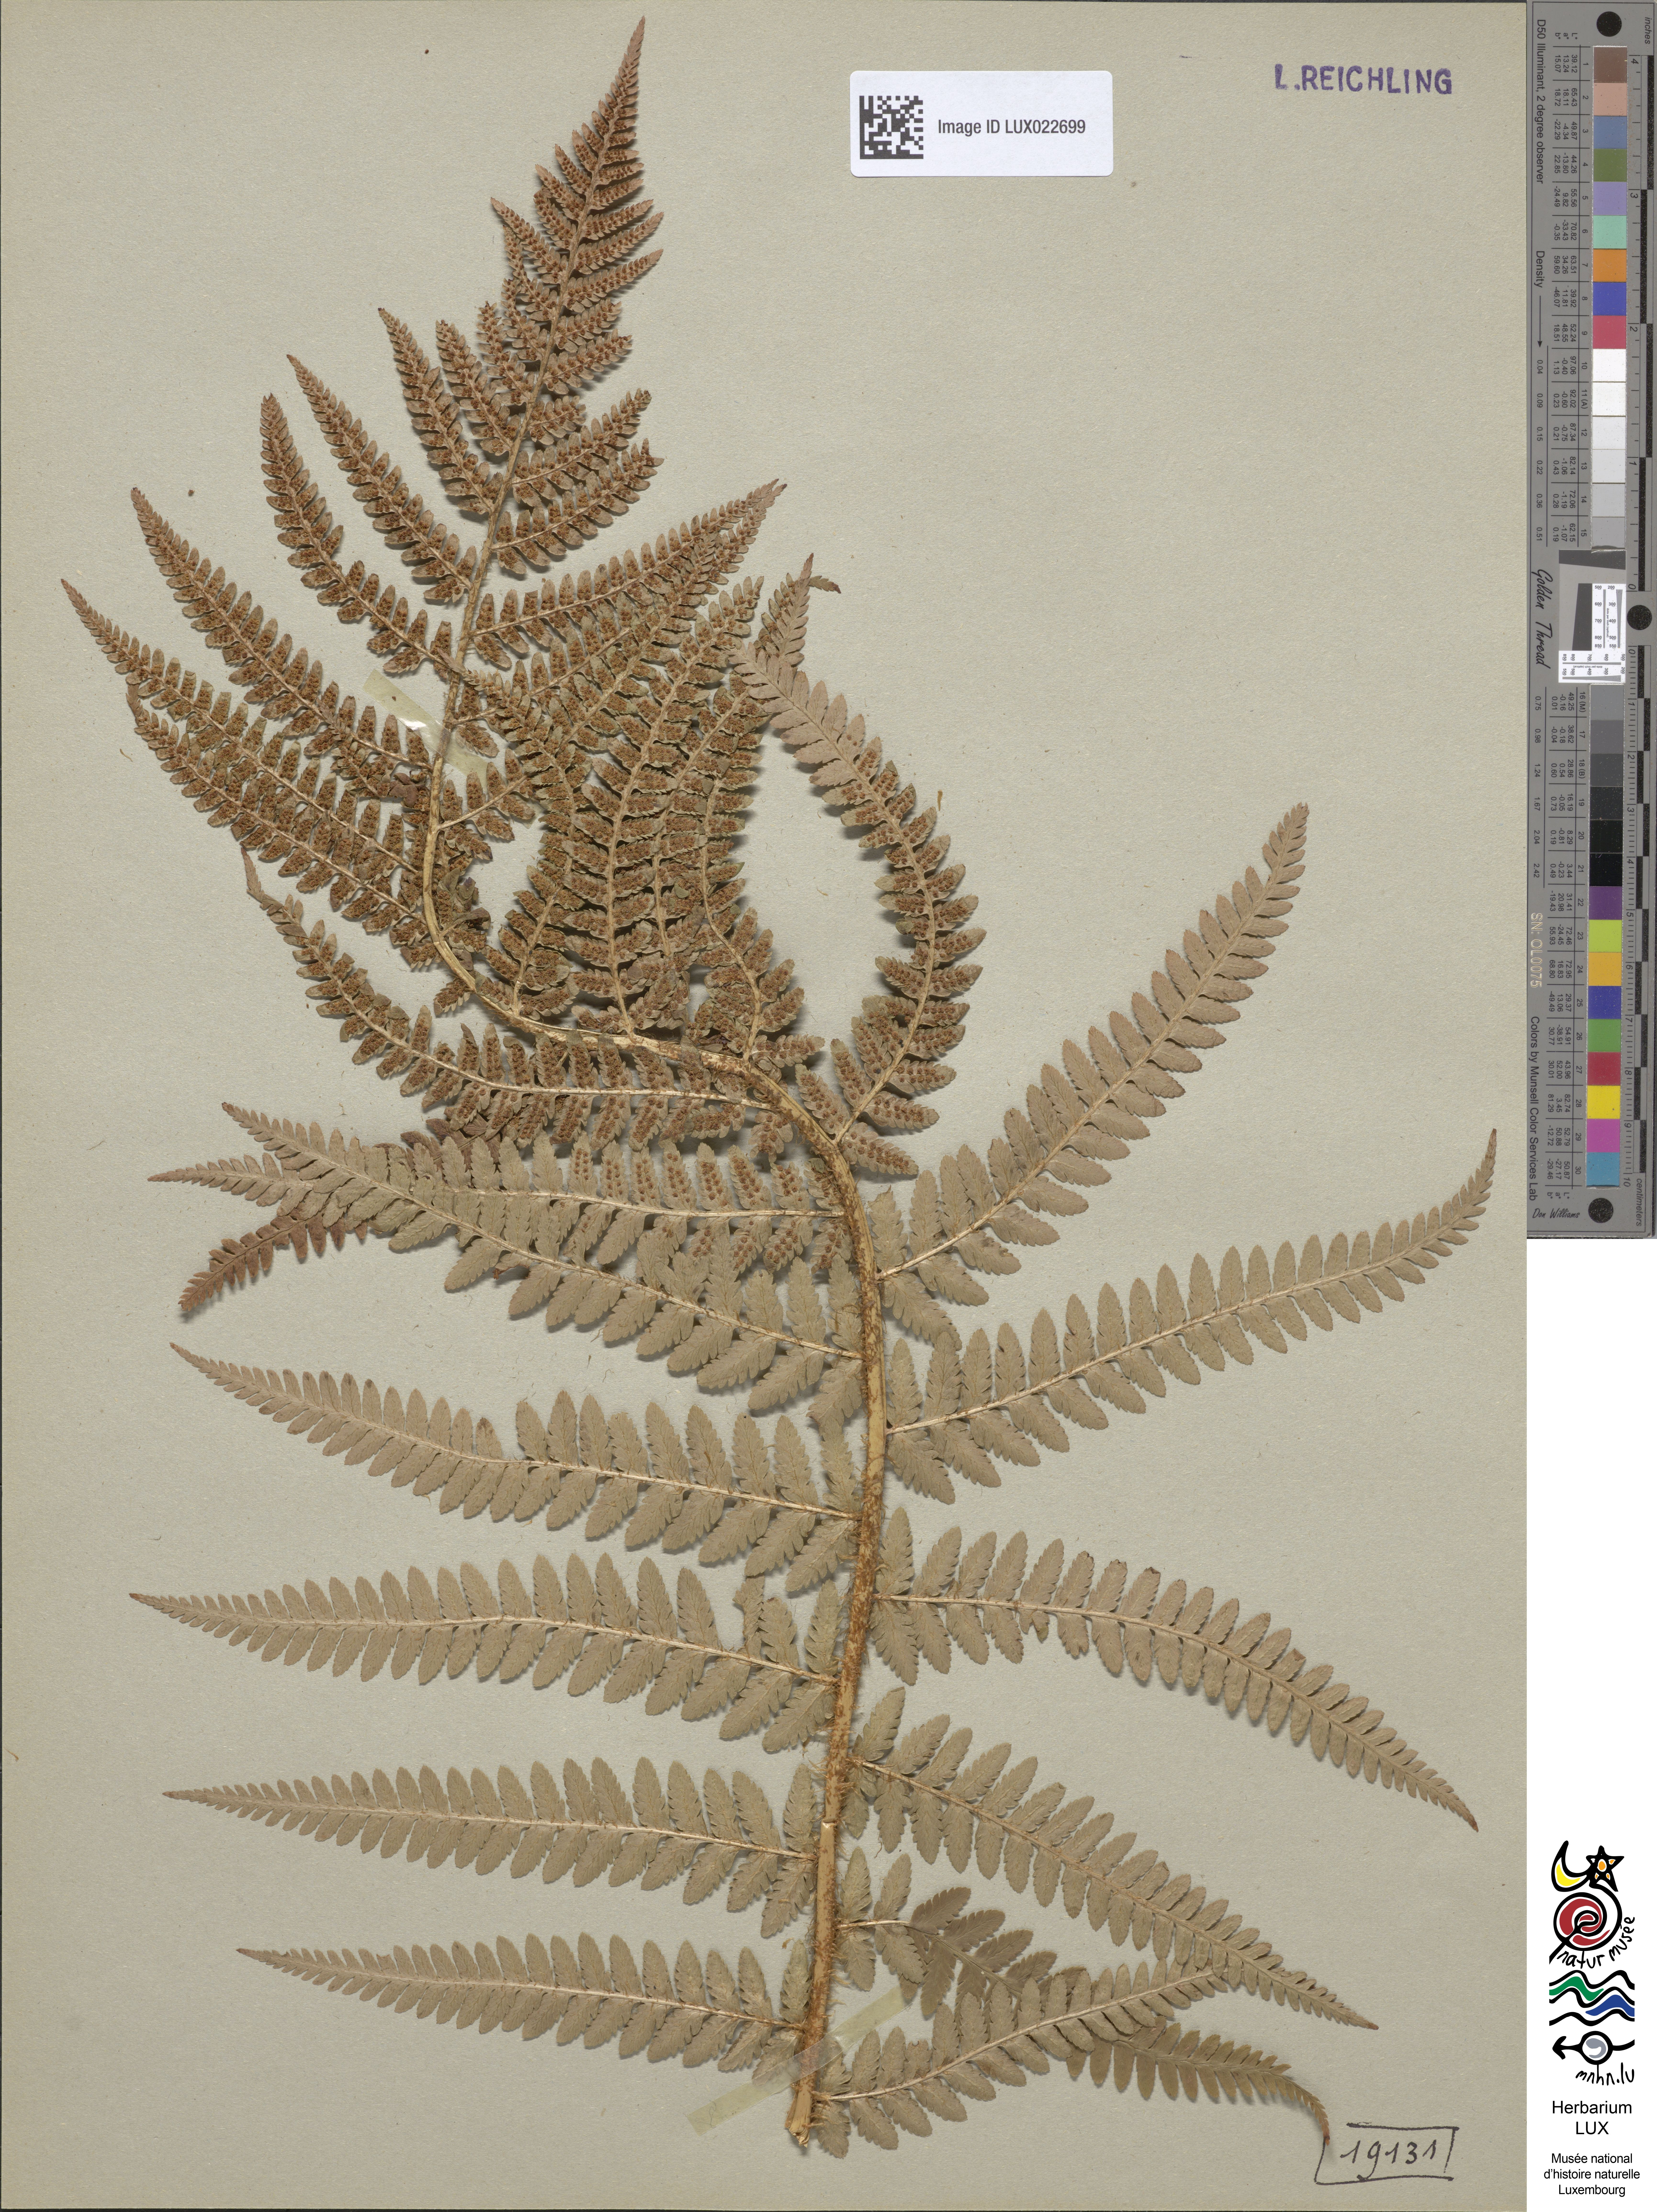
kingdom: Plantae
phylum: Tracheophyta
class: Polypodiopsida
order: Polypodiales
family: Dryopteridaceae
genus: Dryopteris
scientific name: Dryopteris filix-mas
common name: Male fern
